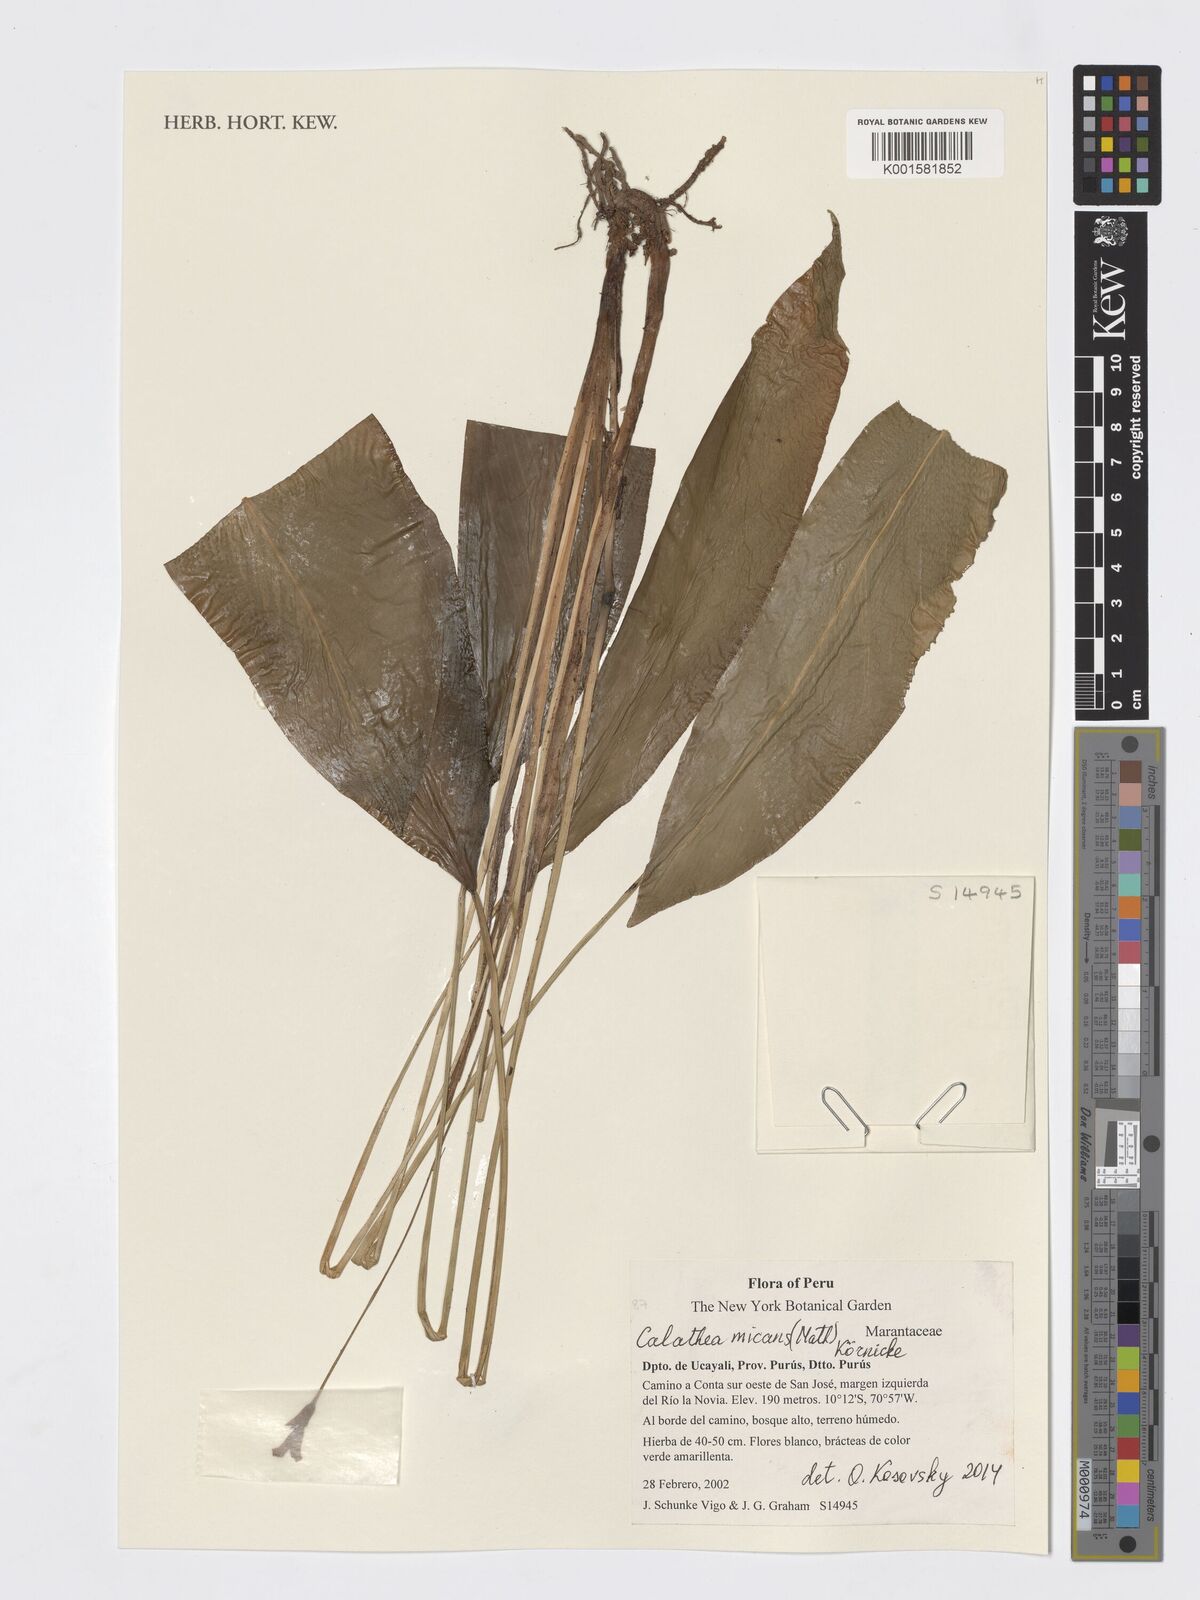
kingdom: Plantae
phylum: Tracheophyta
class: Liliopsida
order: Zingiberales
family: Marantaceae
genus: Goeppertia
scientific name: Goeppertia micans
